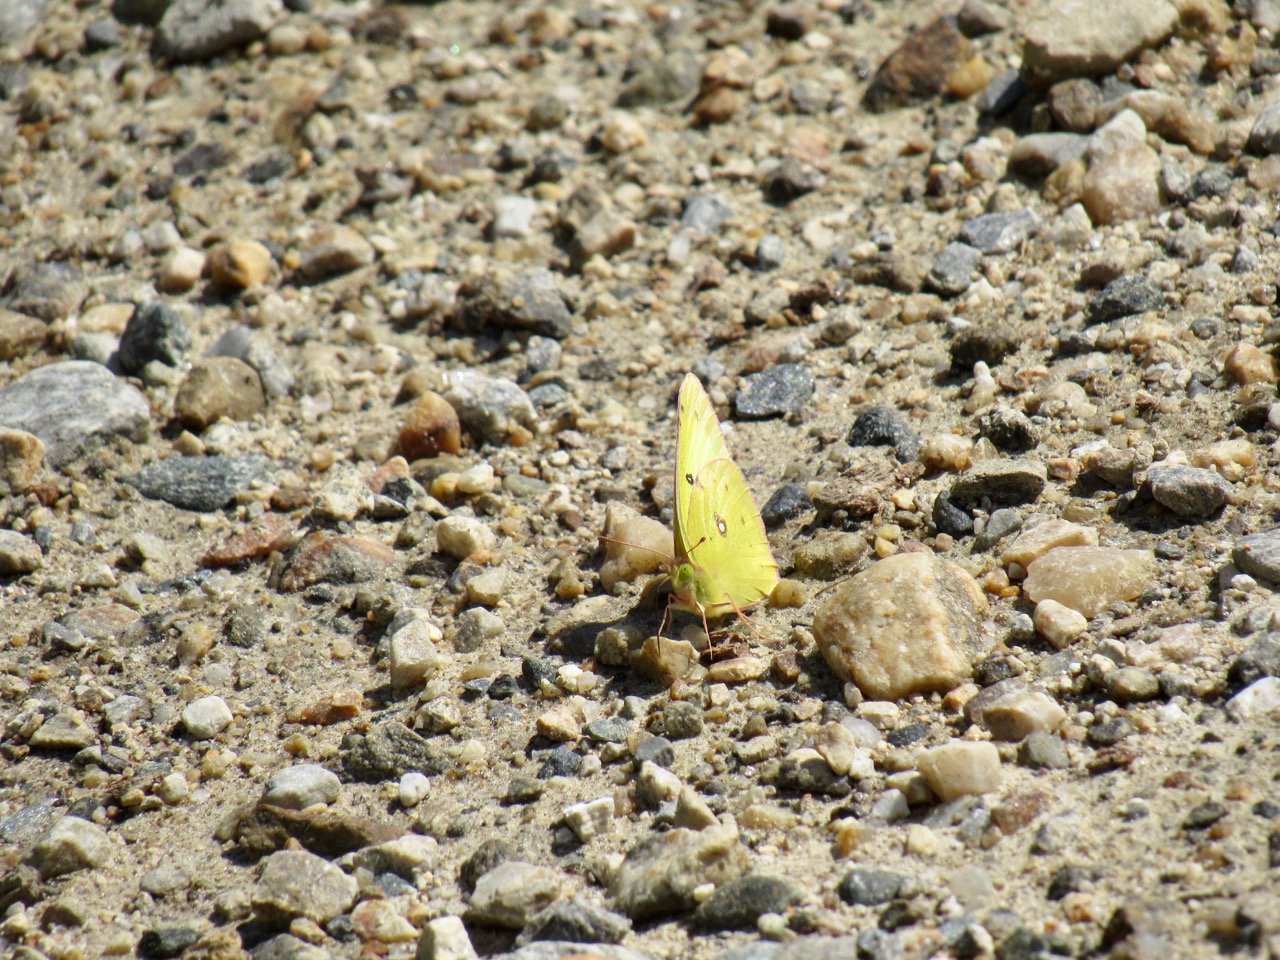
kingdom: Animalia
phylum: Arthropoda
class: Insecta
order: Lepidoptera
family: Pieridae
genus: Colias
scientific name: Colias philodice
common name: Clouded Sulphur
